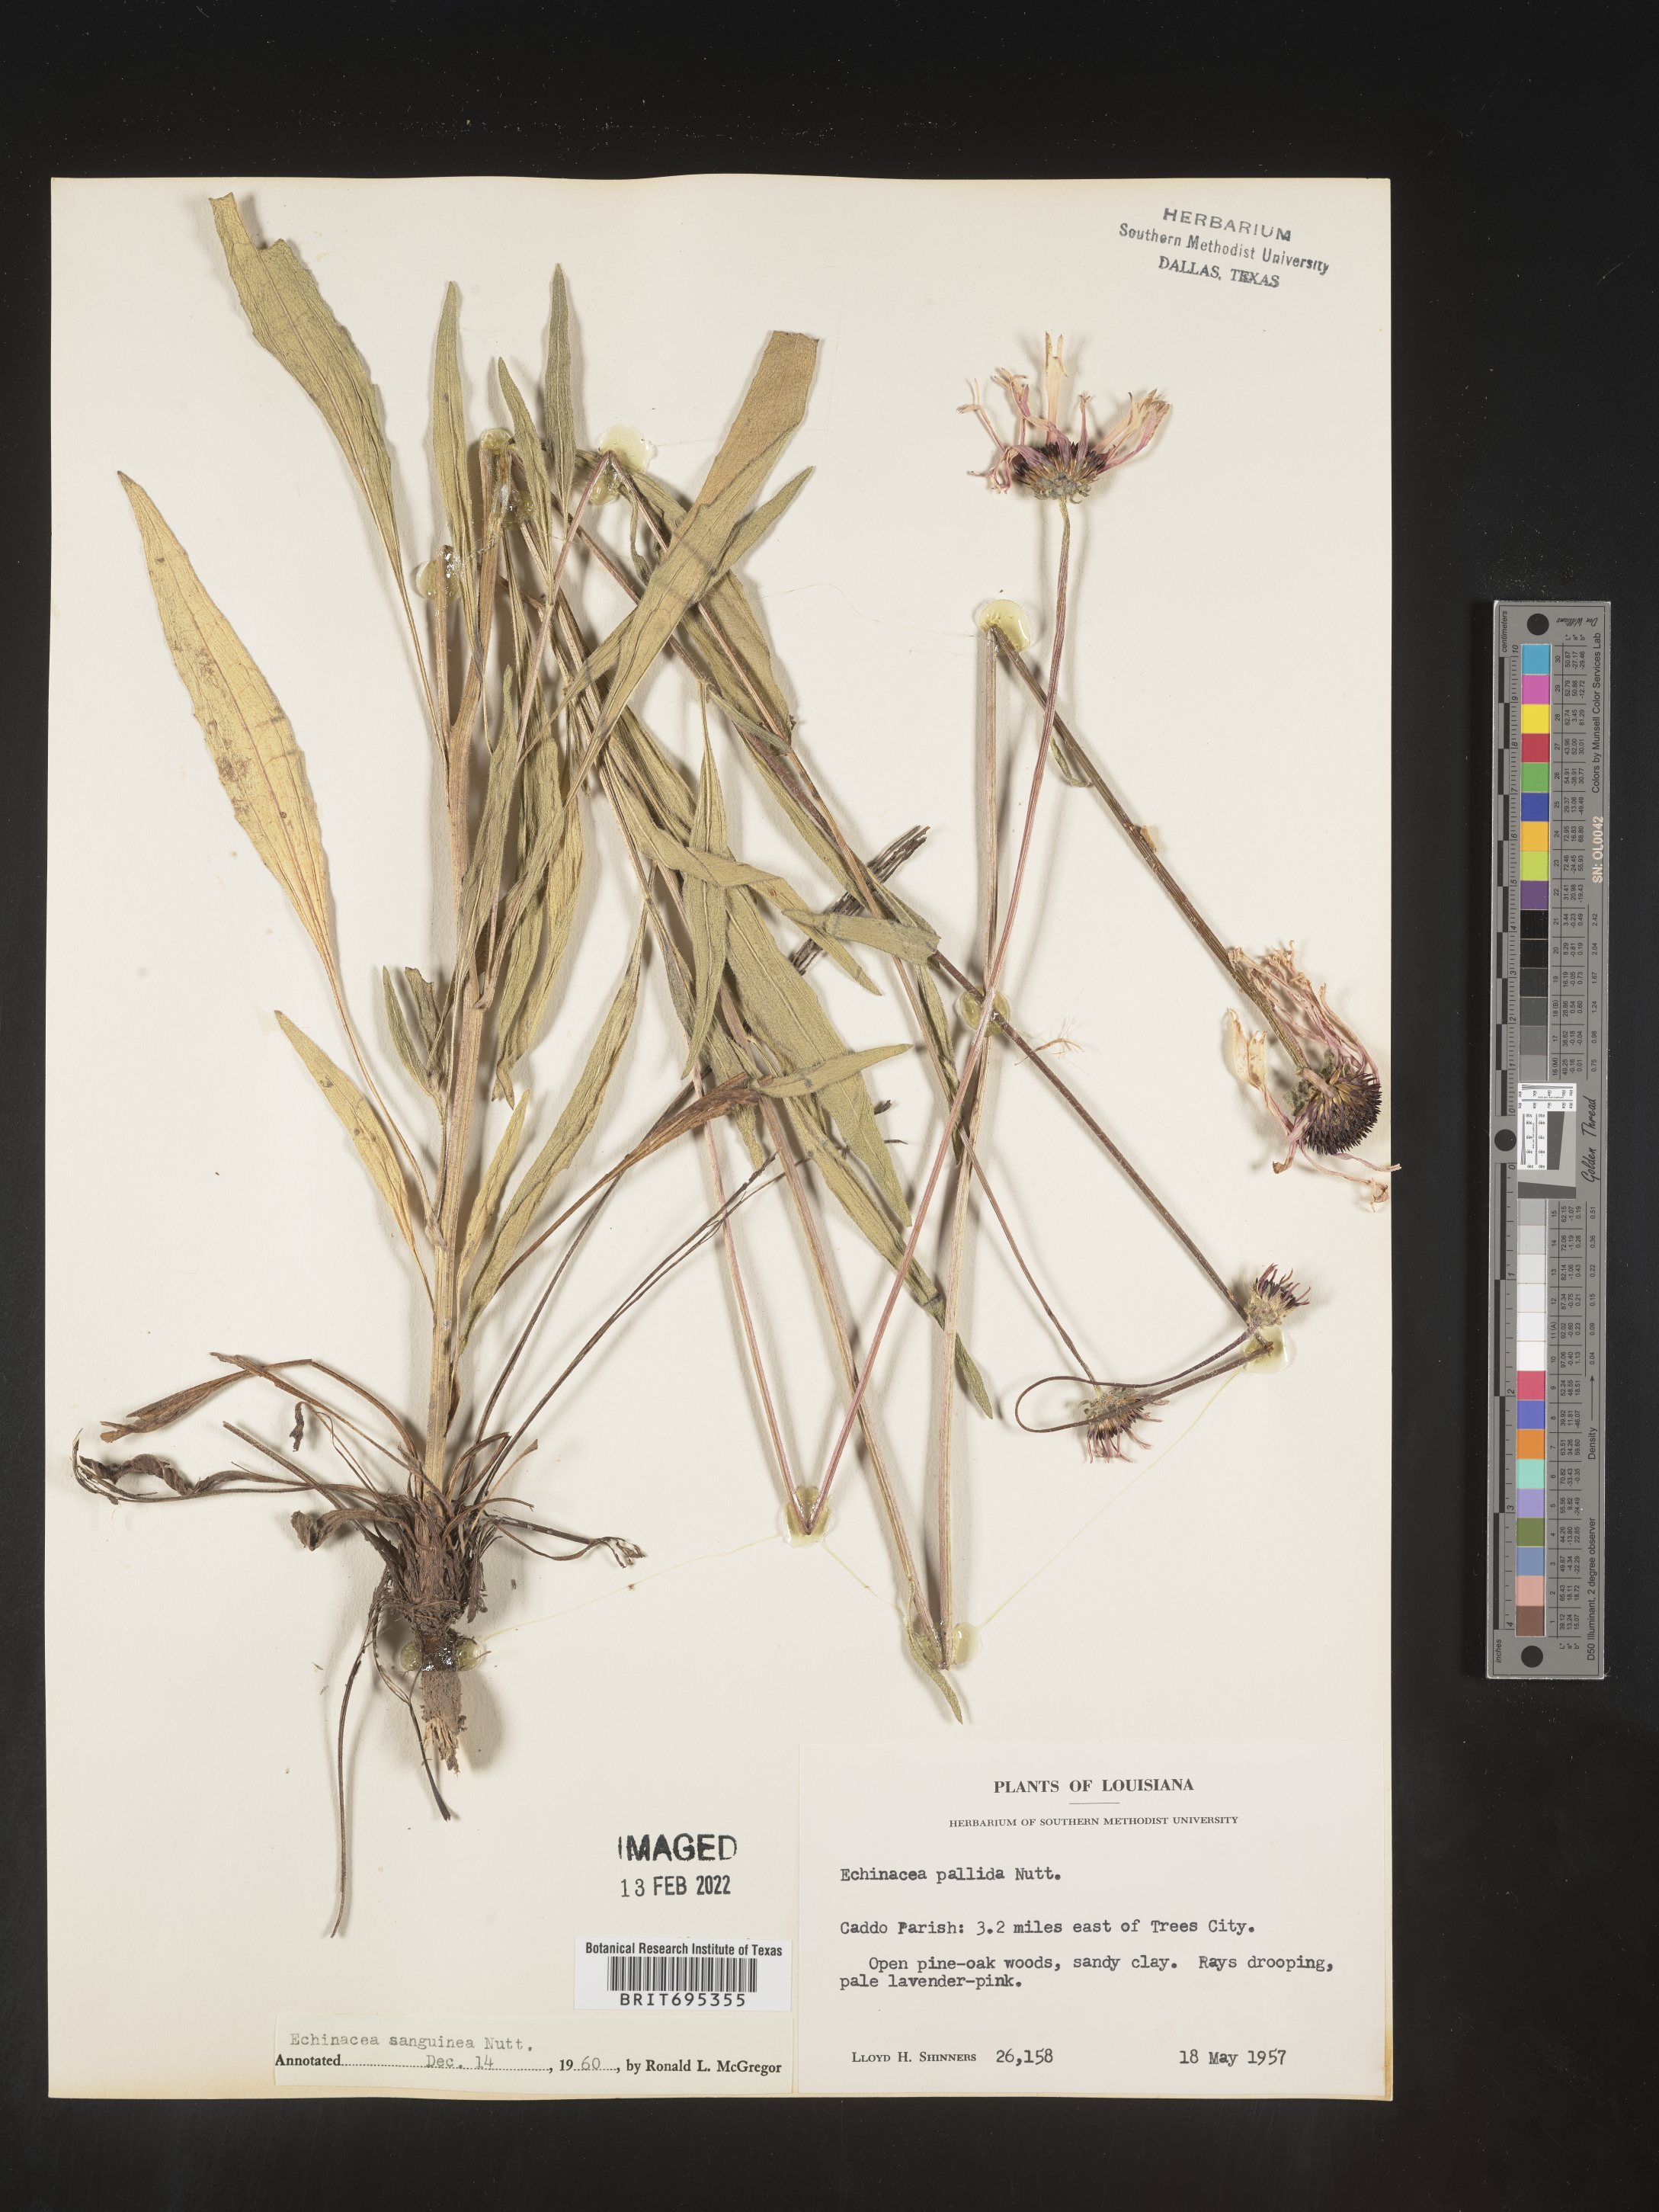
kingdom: Plantae
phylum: Tracheophyta
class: Magnoliopsida
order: Asterales
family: Asteraceae
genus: Echinacea
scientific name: Echinacea sanguinea
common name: Sanguine purple-coneflower
